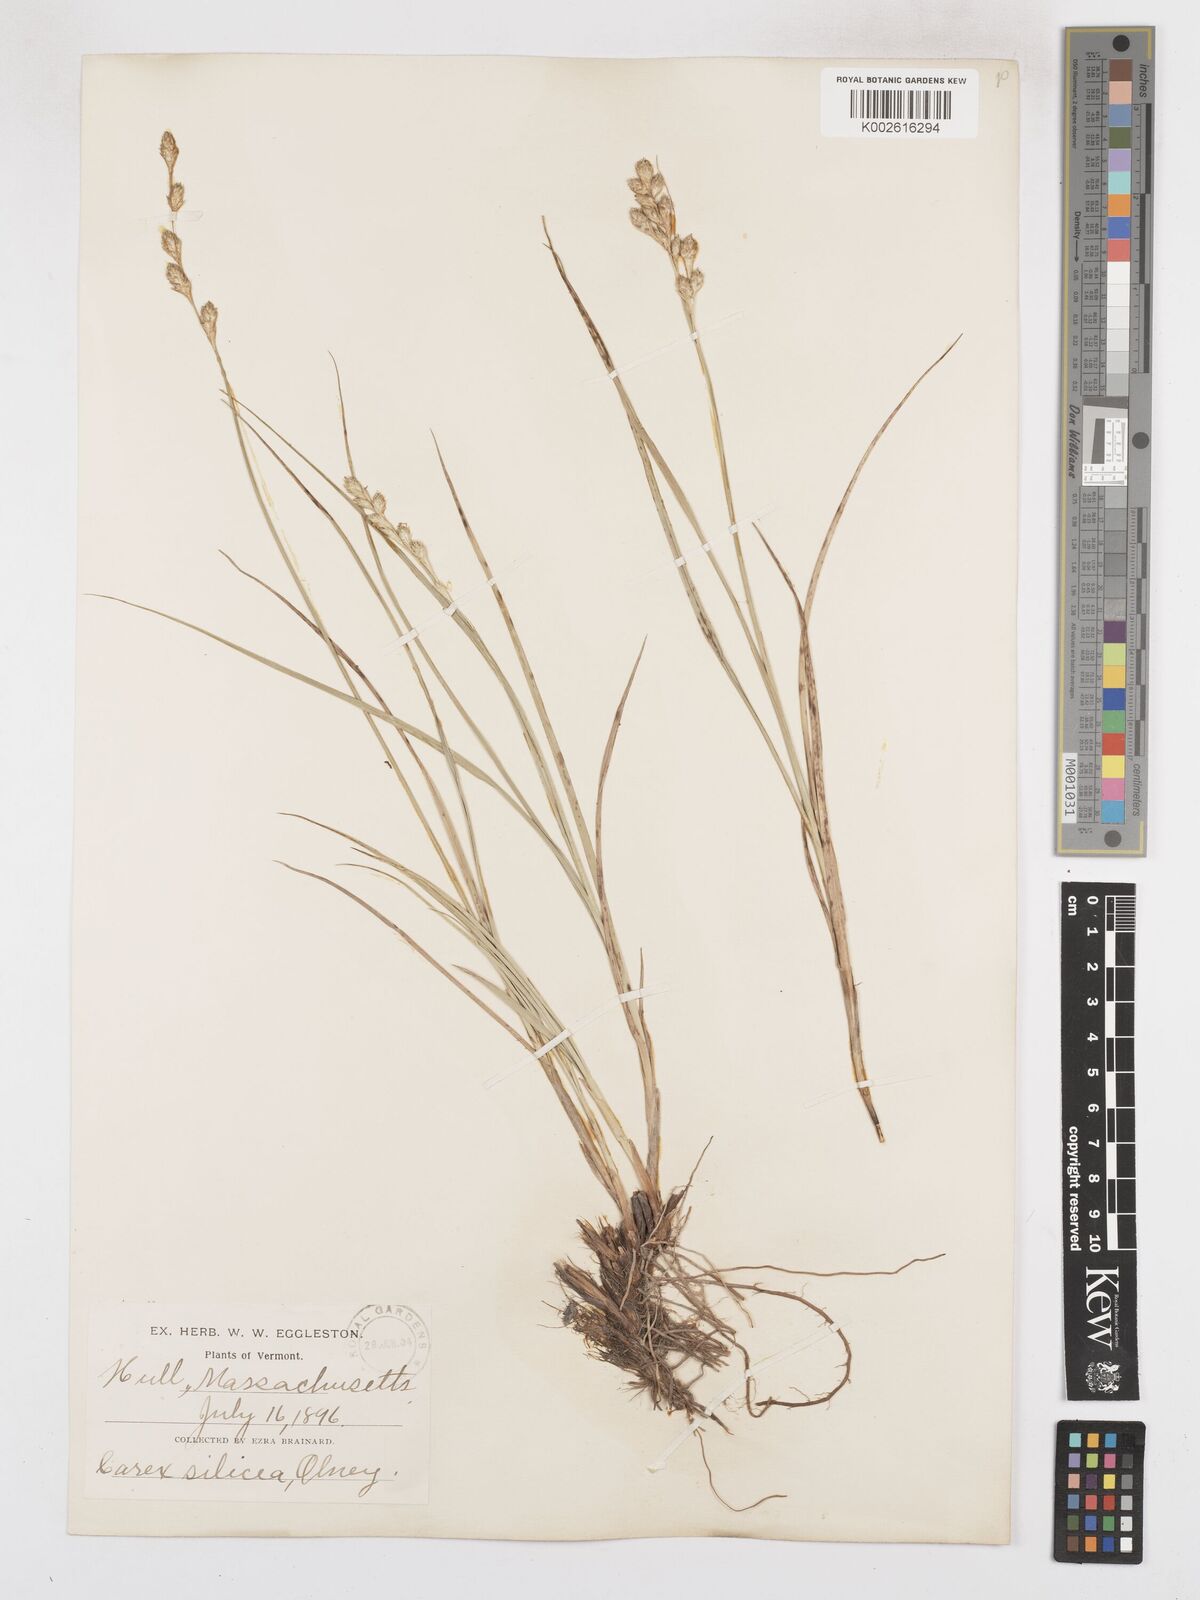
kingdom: Plantae
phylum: Tracheophyta
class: Liliopsida
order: Poales
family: Cyperaceae
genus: Carex
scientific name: Carex silicea
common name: Beach sedge
